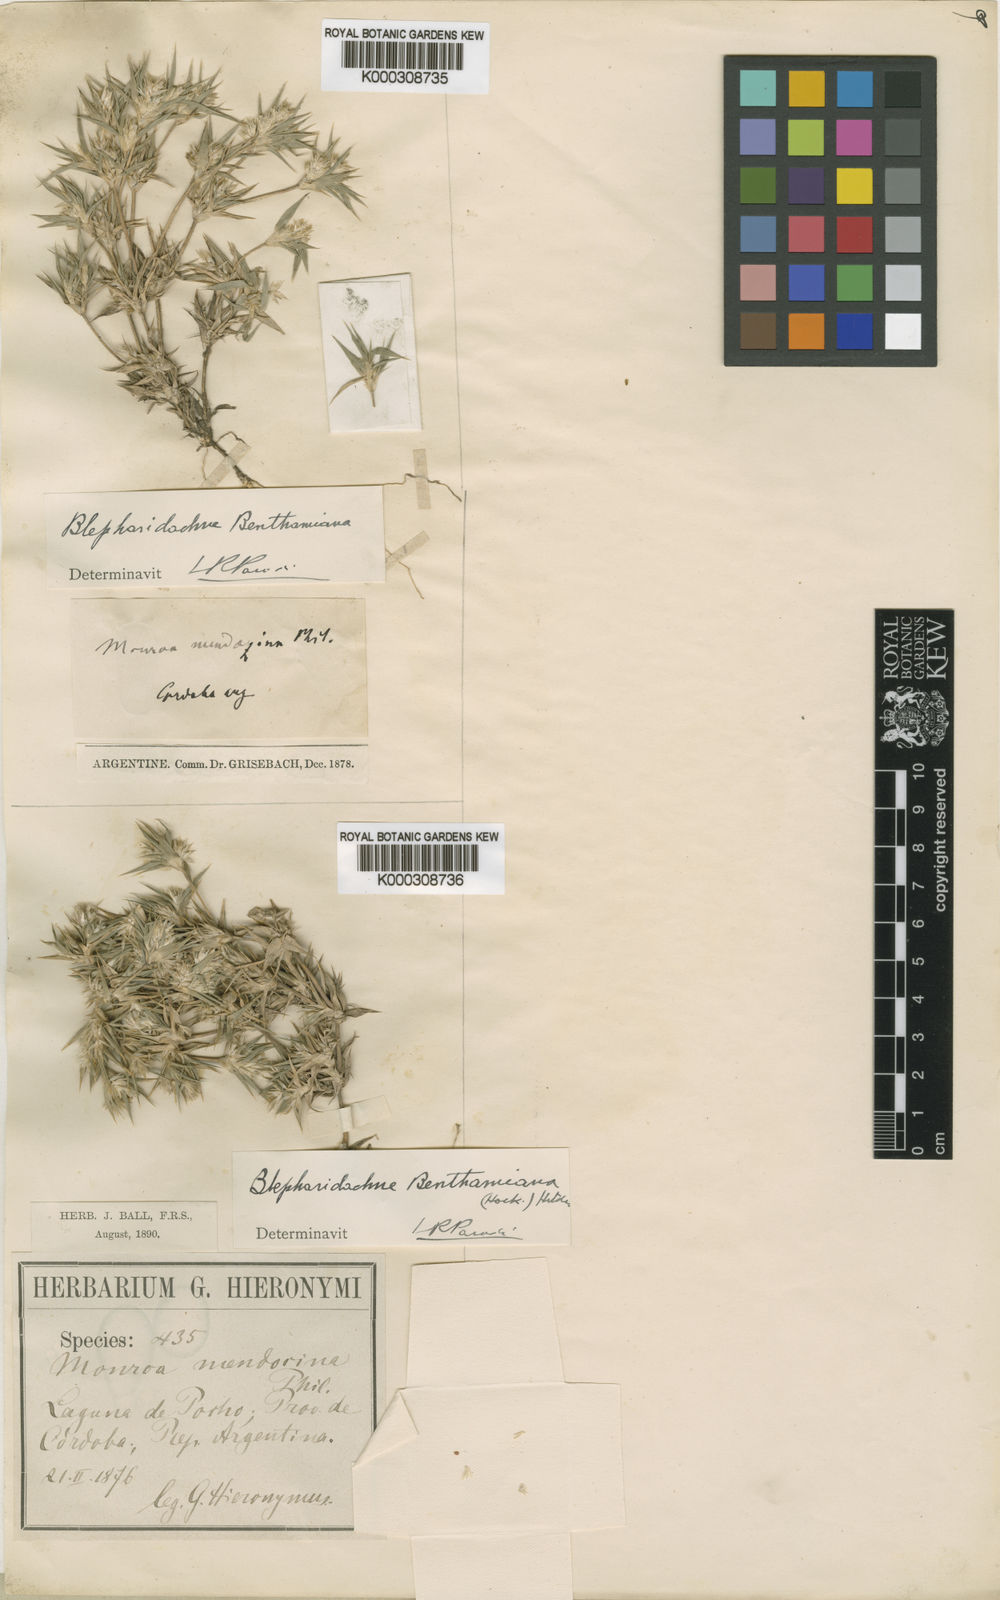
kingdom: Plantae
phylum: Tracheophyta
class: Liliopsida
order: Poales
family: Poaceae
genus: Blepharidachne
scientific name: Blepharidachne benthamiana
